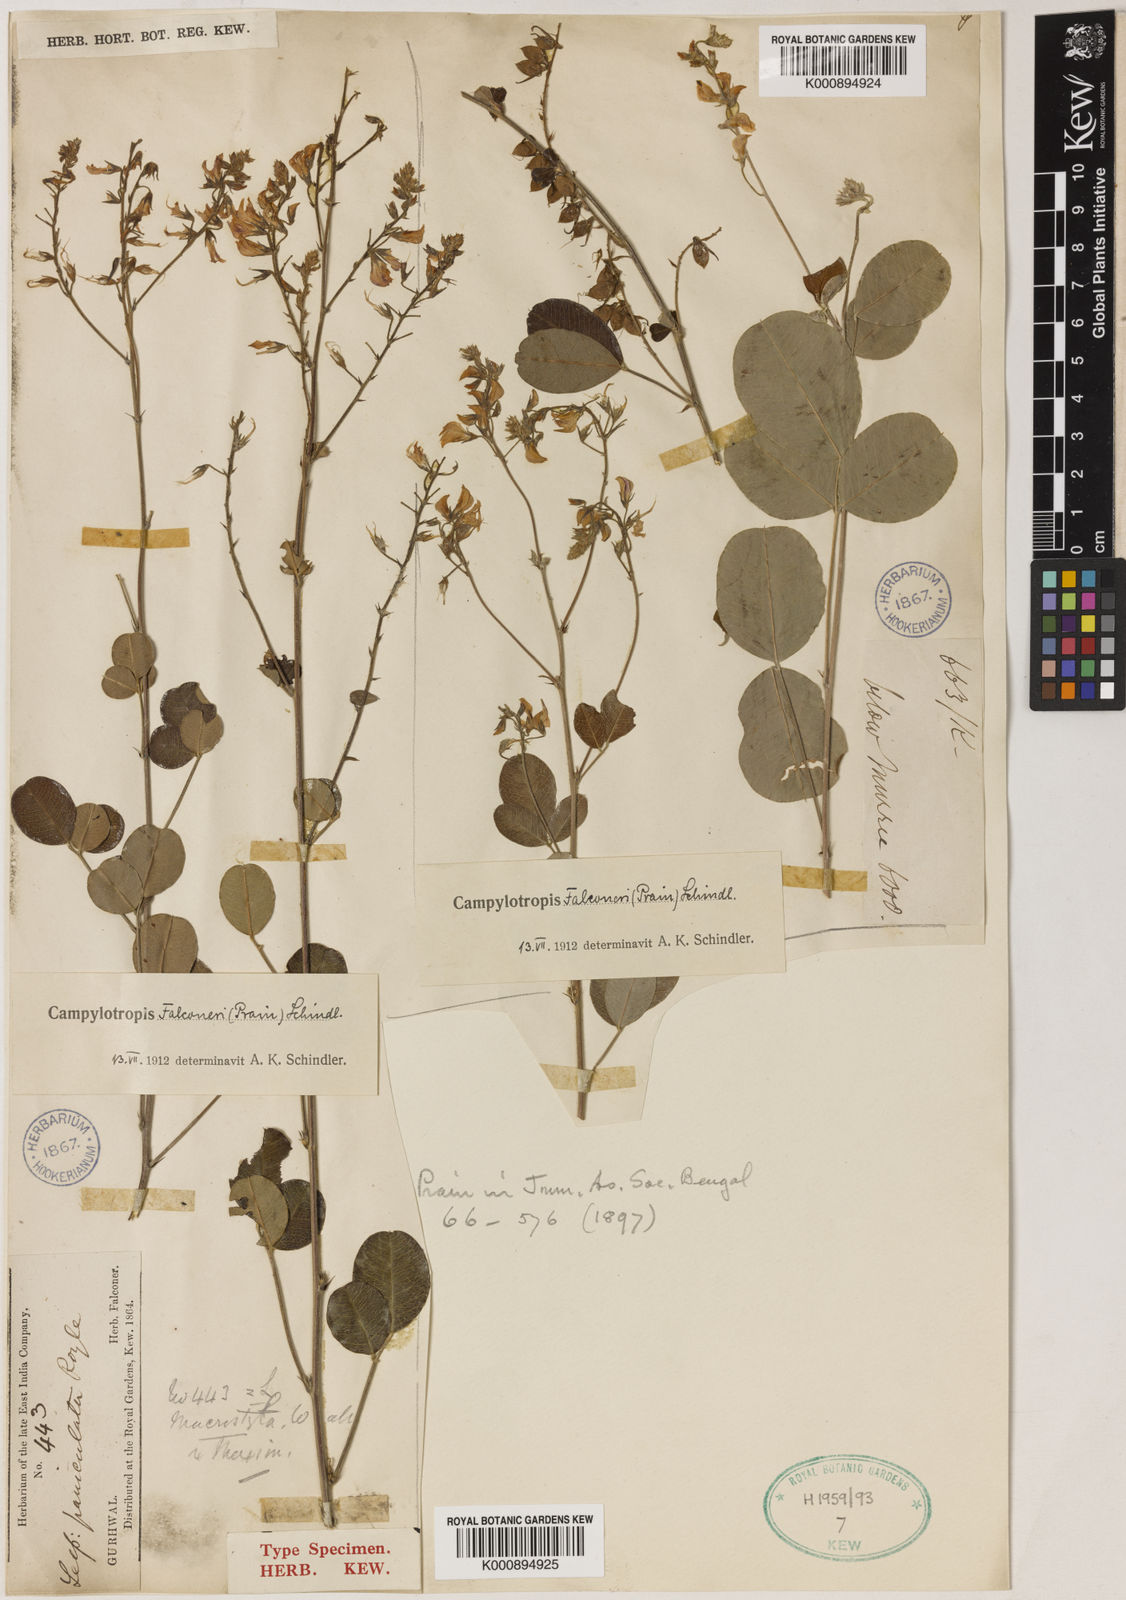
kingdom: Plantae
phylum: Tracheophyta
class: Magnoliopsida
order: Fabales
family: Fabaceae
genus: Campylotropis
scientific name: Campylotropis falconeri
